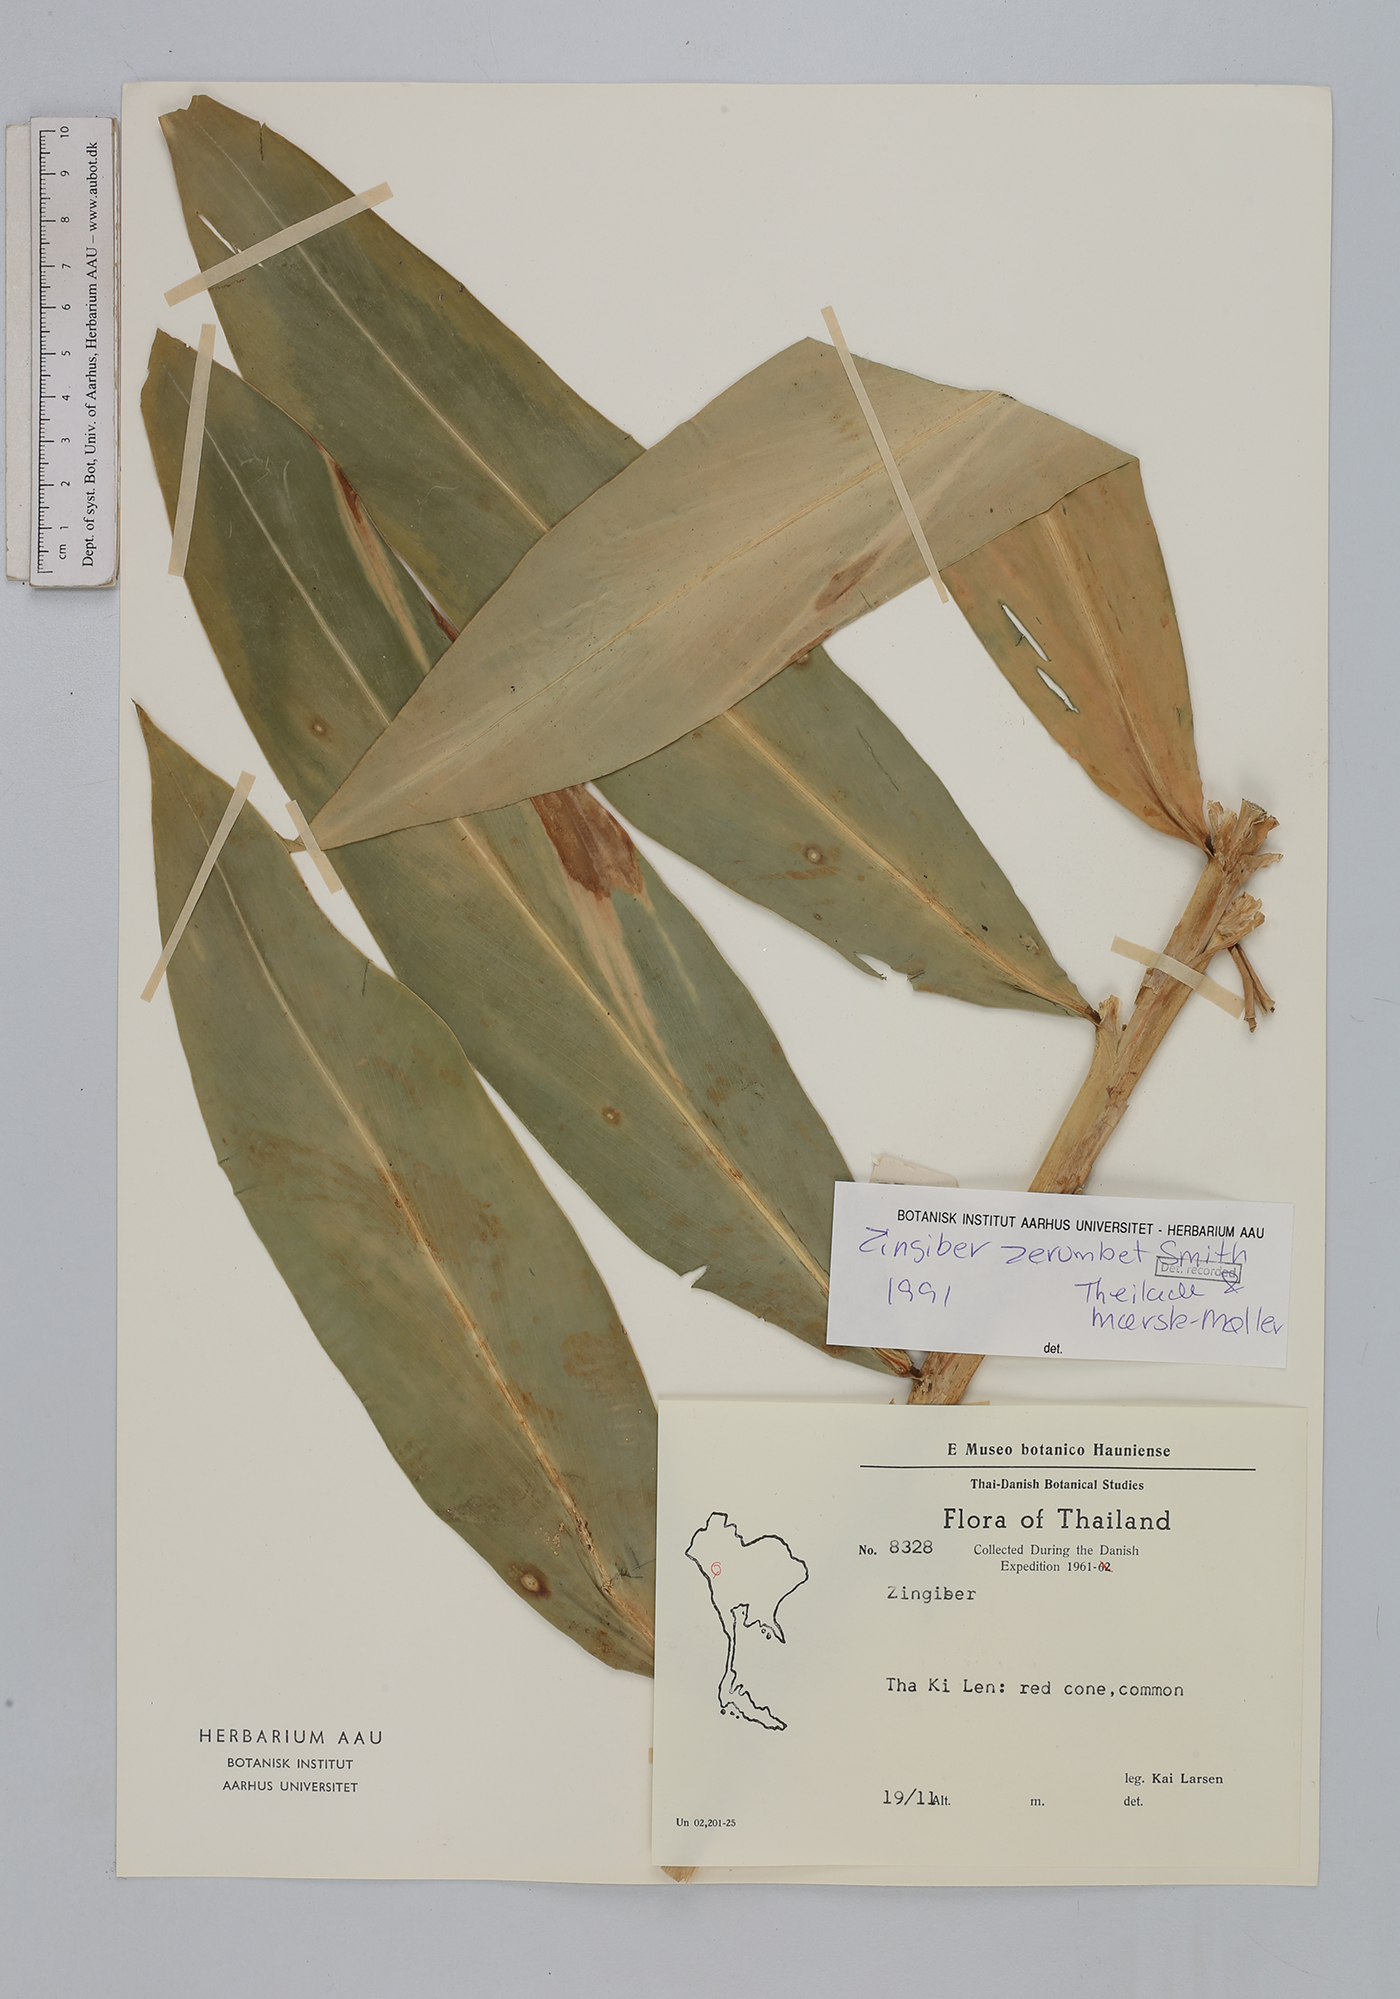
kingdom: Plantae
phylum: Tracheophyta
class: Liliopsida
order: Zingiberales
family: Zingiberaceae
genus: Zingiber
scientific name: Zingiber zerumbet
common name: Bitter ginger
